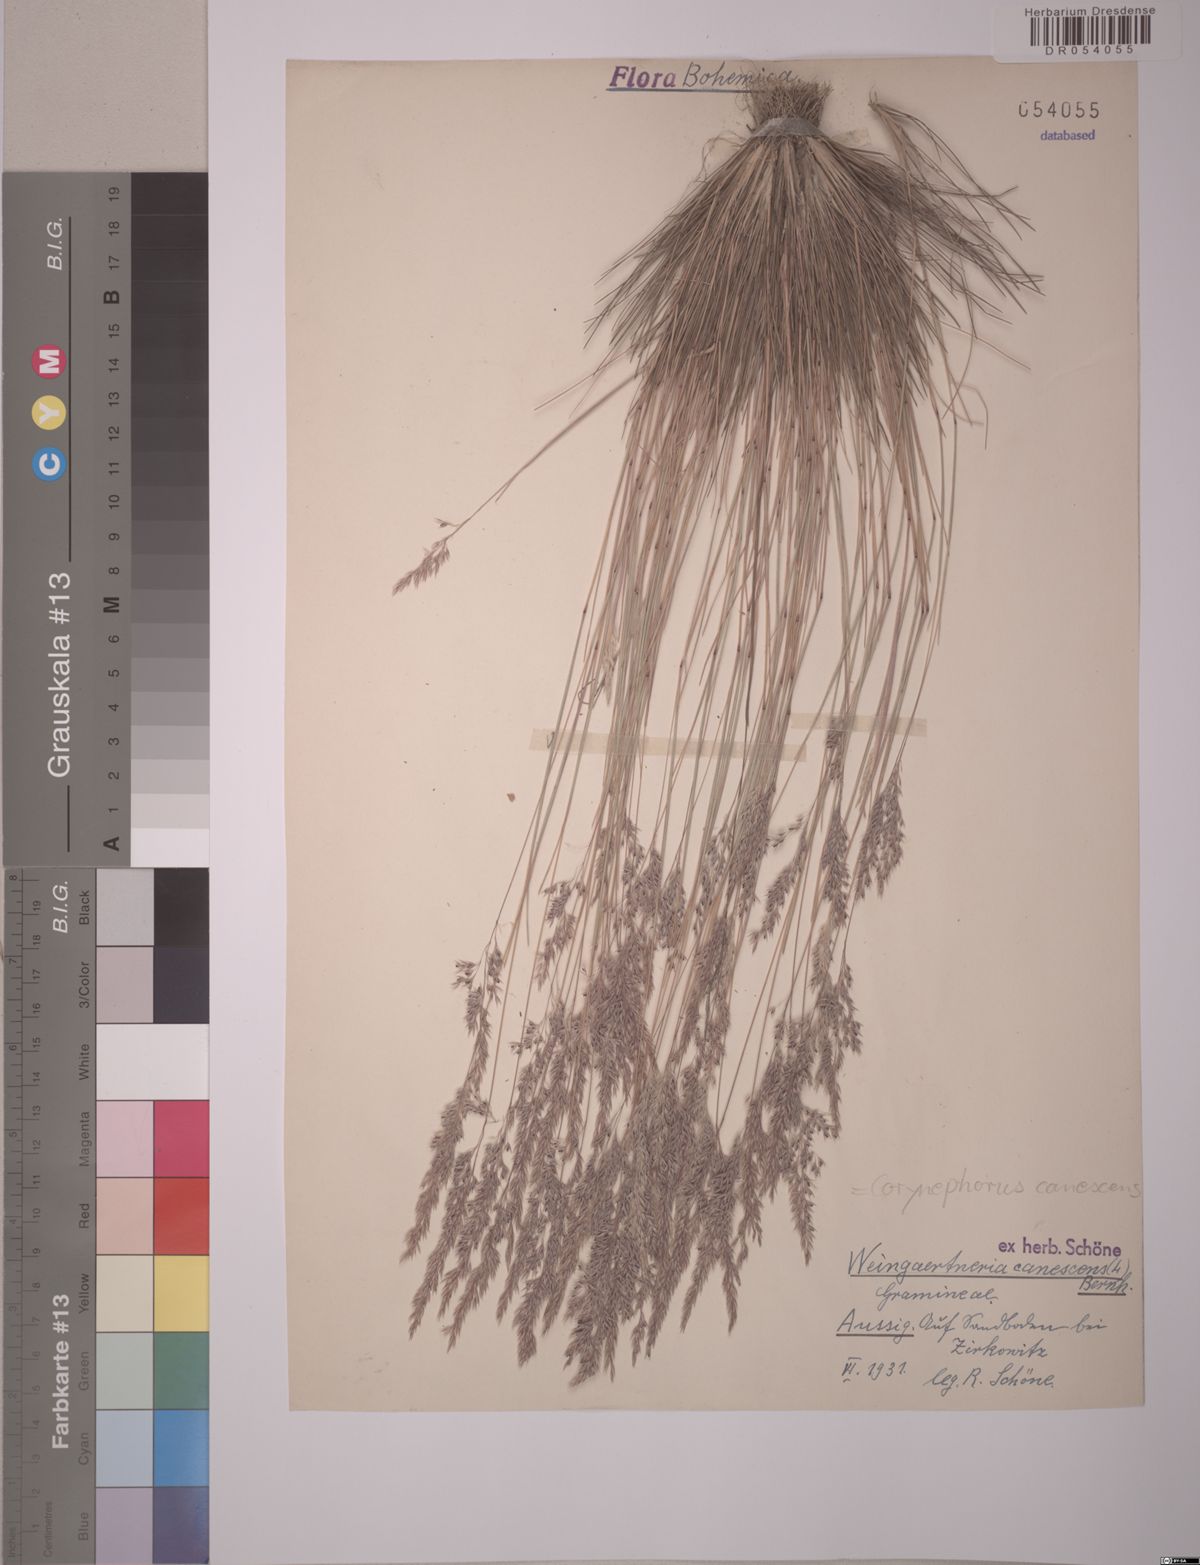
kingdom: Plantae
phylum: Tracheophyta
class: Liliopsida
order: Poales
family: Poaceae
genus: Corynephorus
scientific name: Corynephorus canescens
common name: Grey hair-grass
